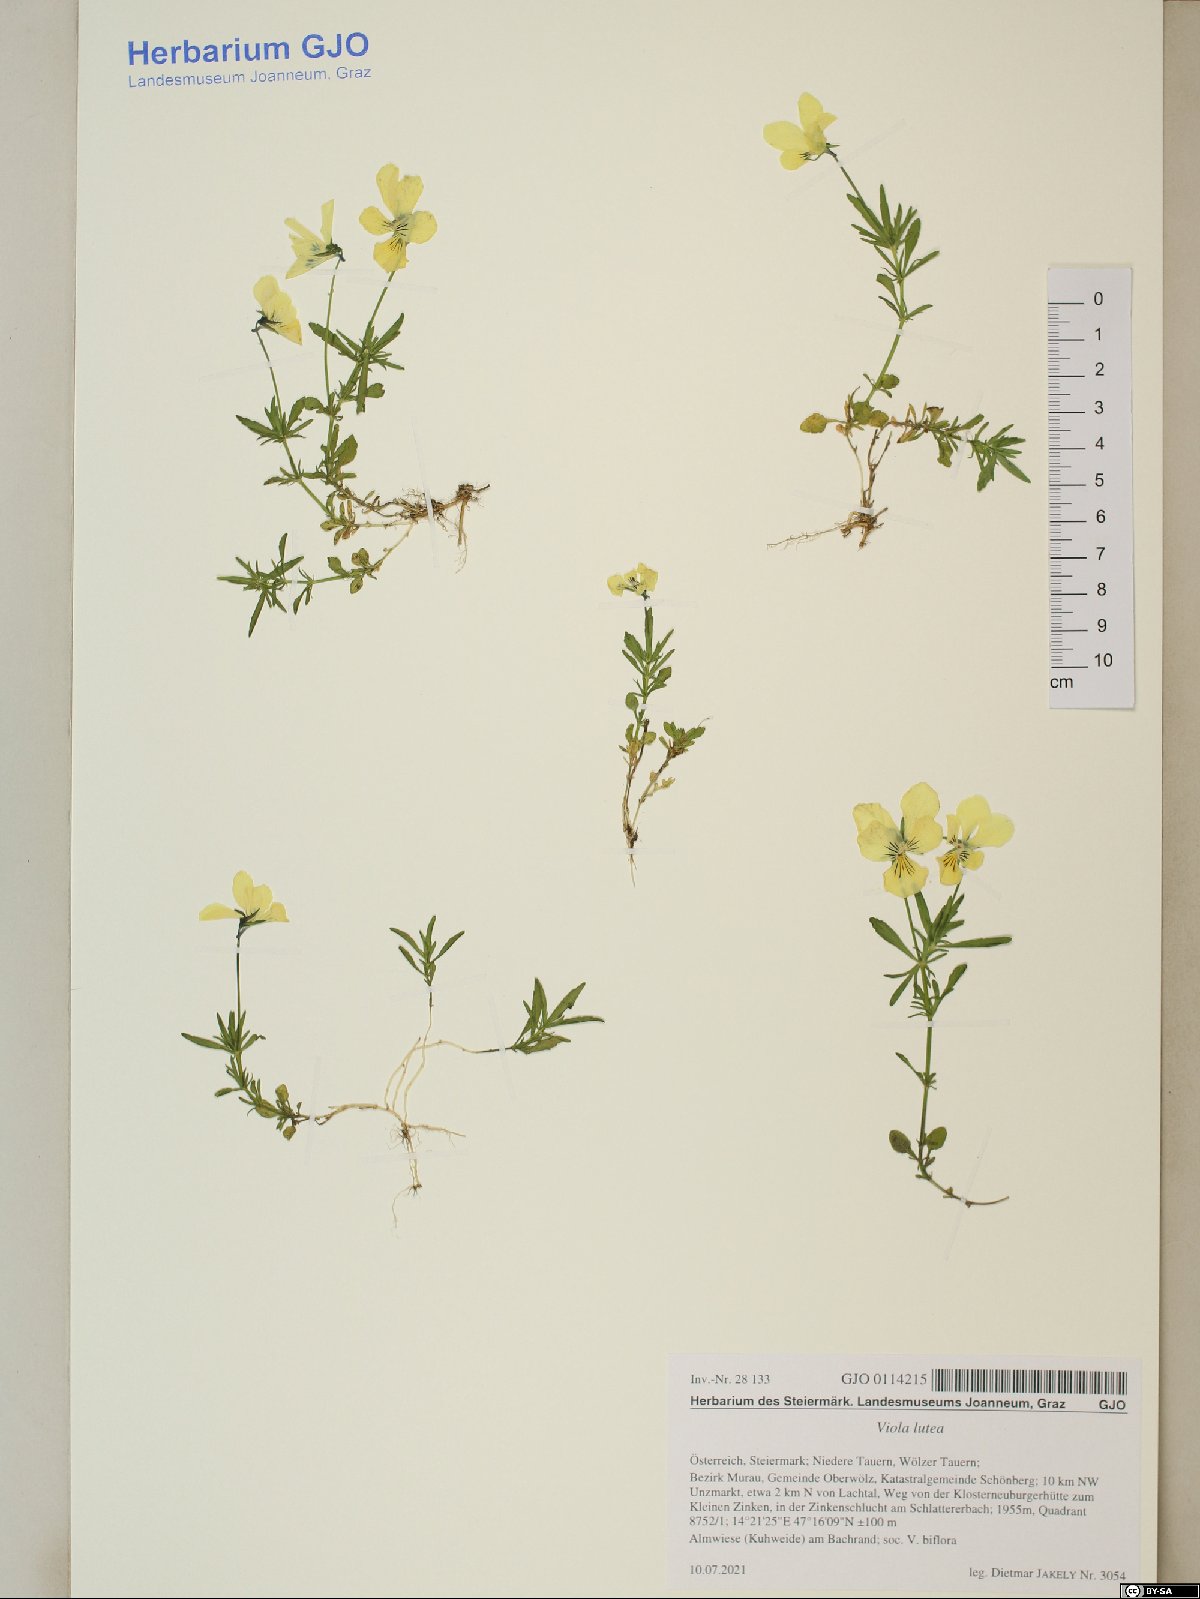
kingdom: Plantae
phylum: Tracheophyta
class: Magnoliopsida
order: Malpighiales
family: Violaceae
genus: Viola
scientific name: Viola lutea
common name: Mountain pansy
